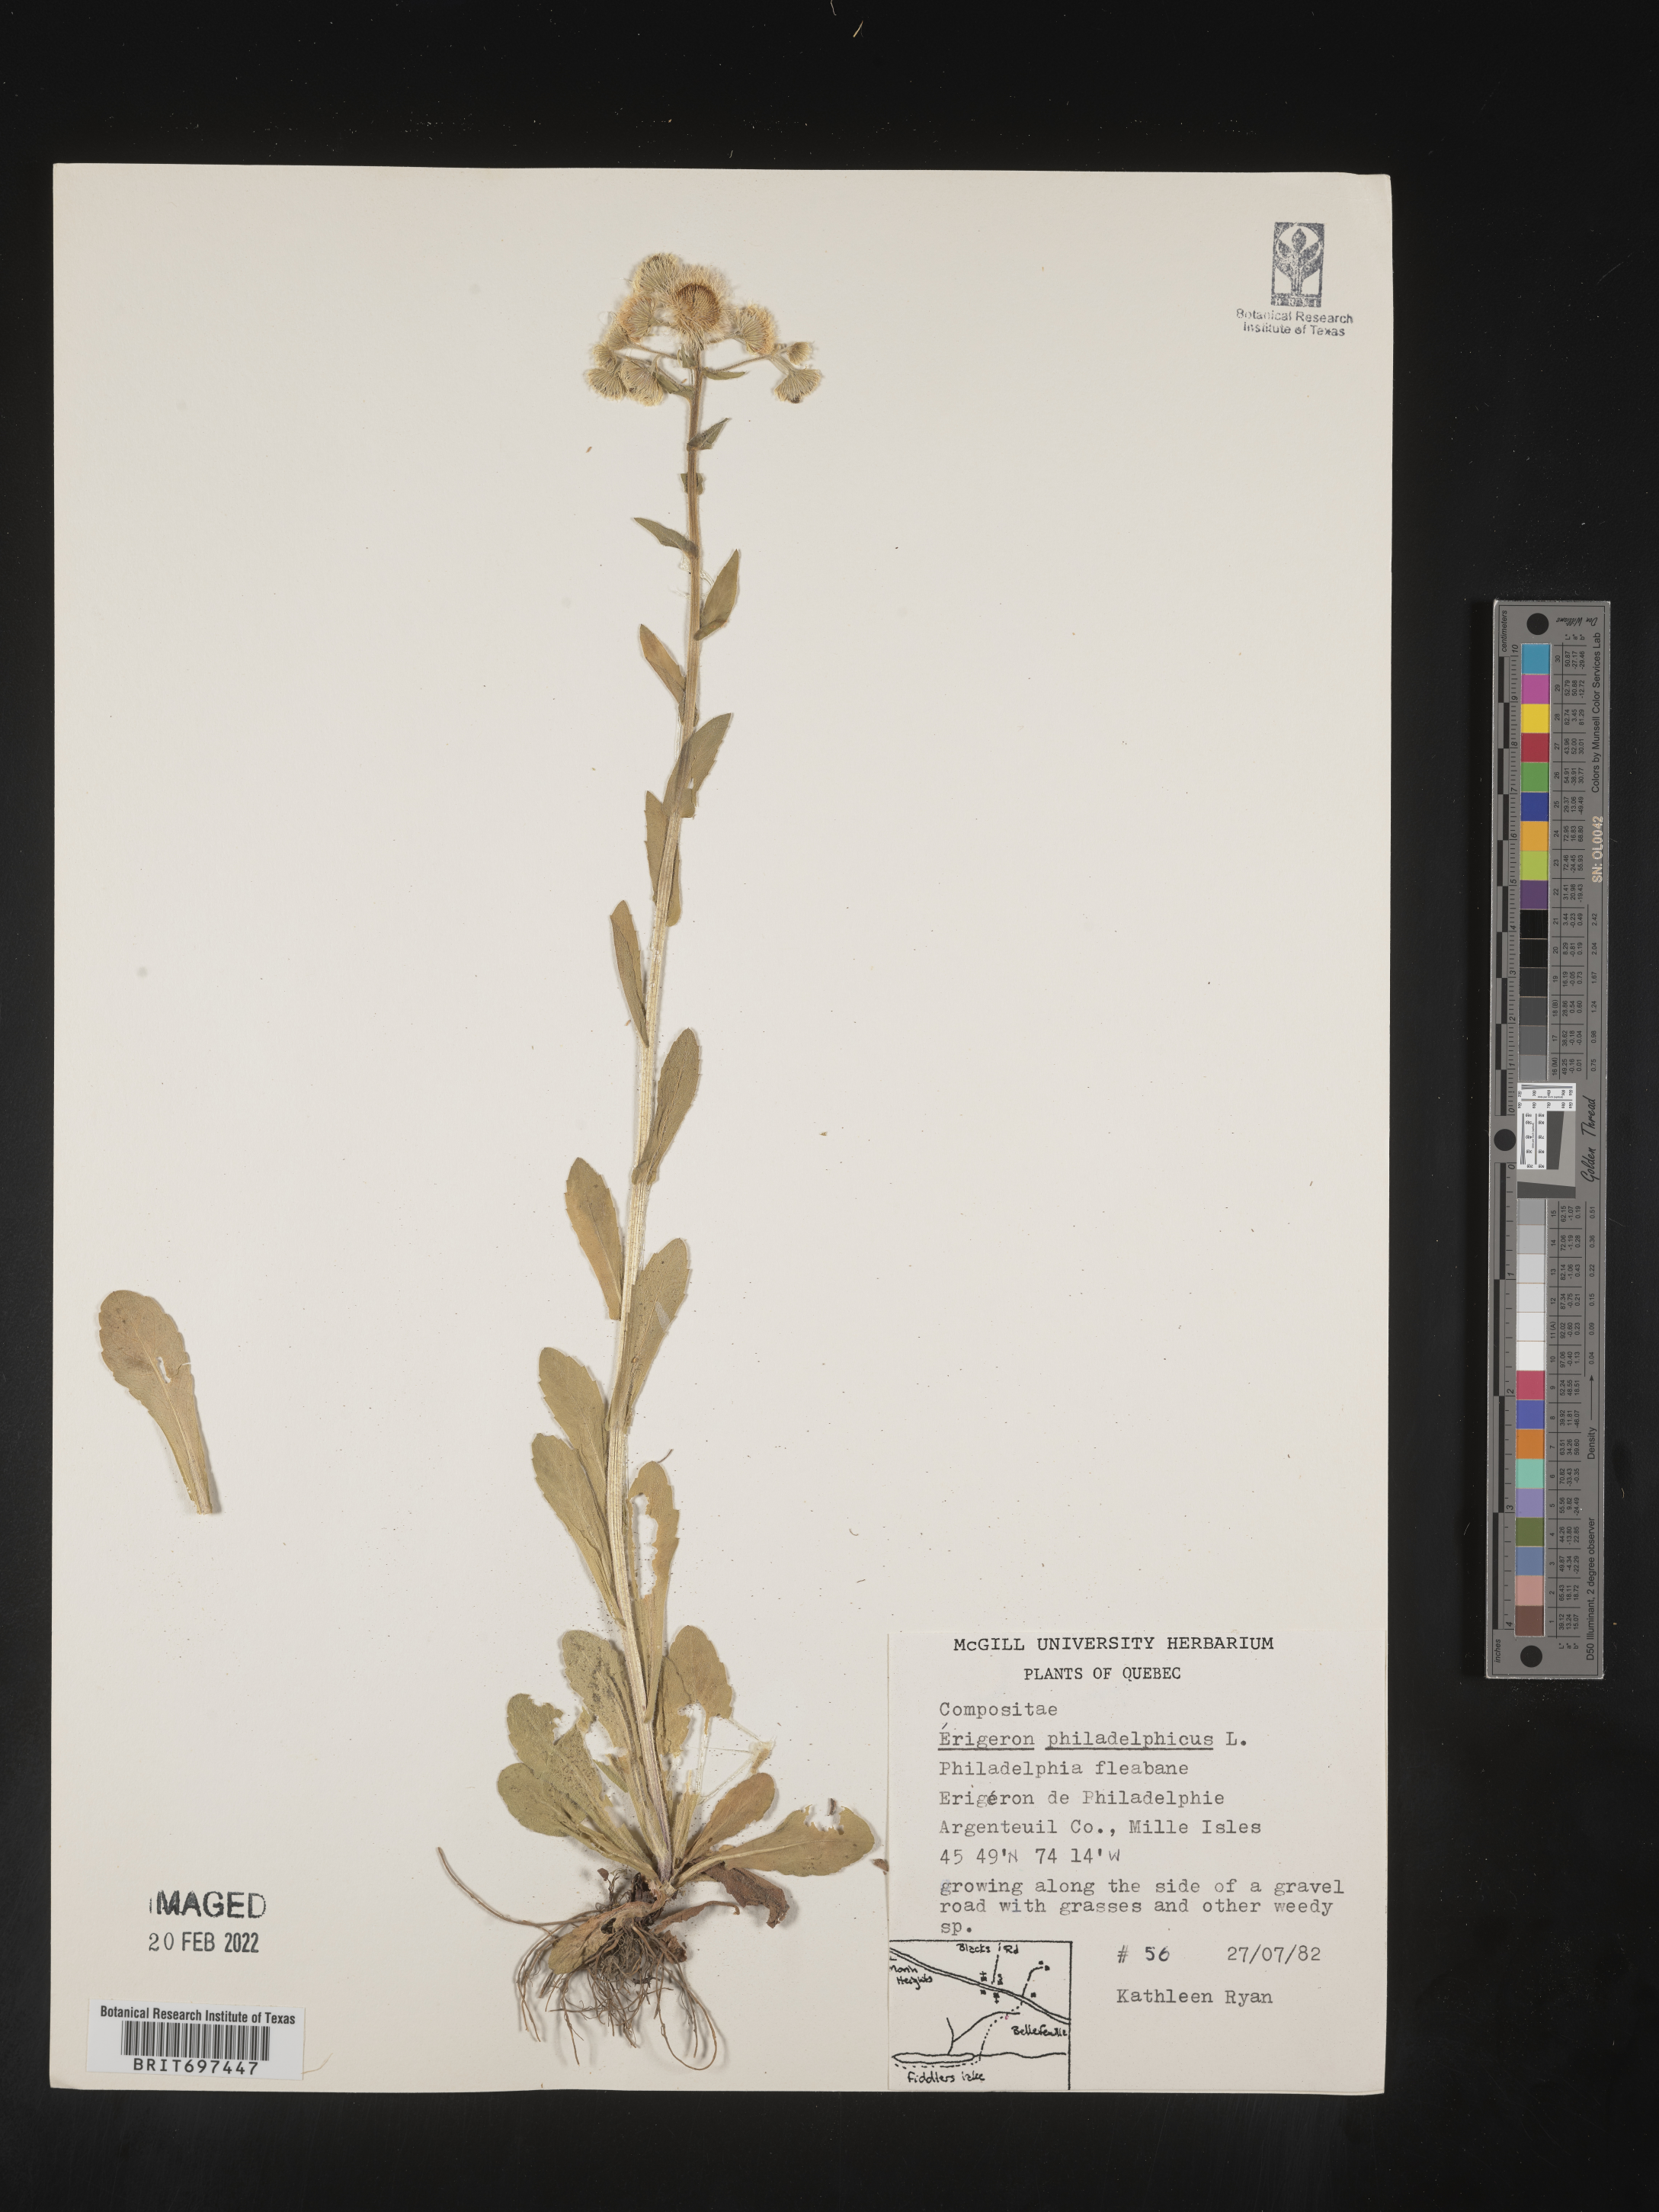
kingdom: Plantae
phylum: Tracheophyta
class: Magnoliopsida
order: Asterales
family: Asteraceae
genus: Erigeron
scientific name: Erigeron philadelphicus
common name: Robin's-plantain
